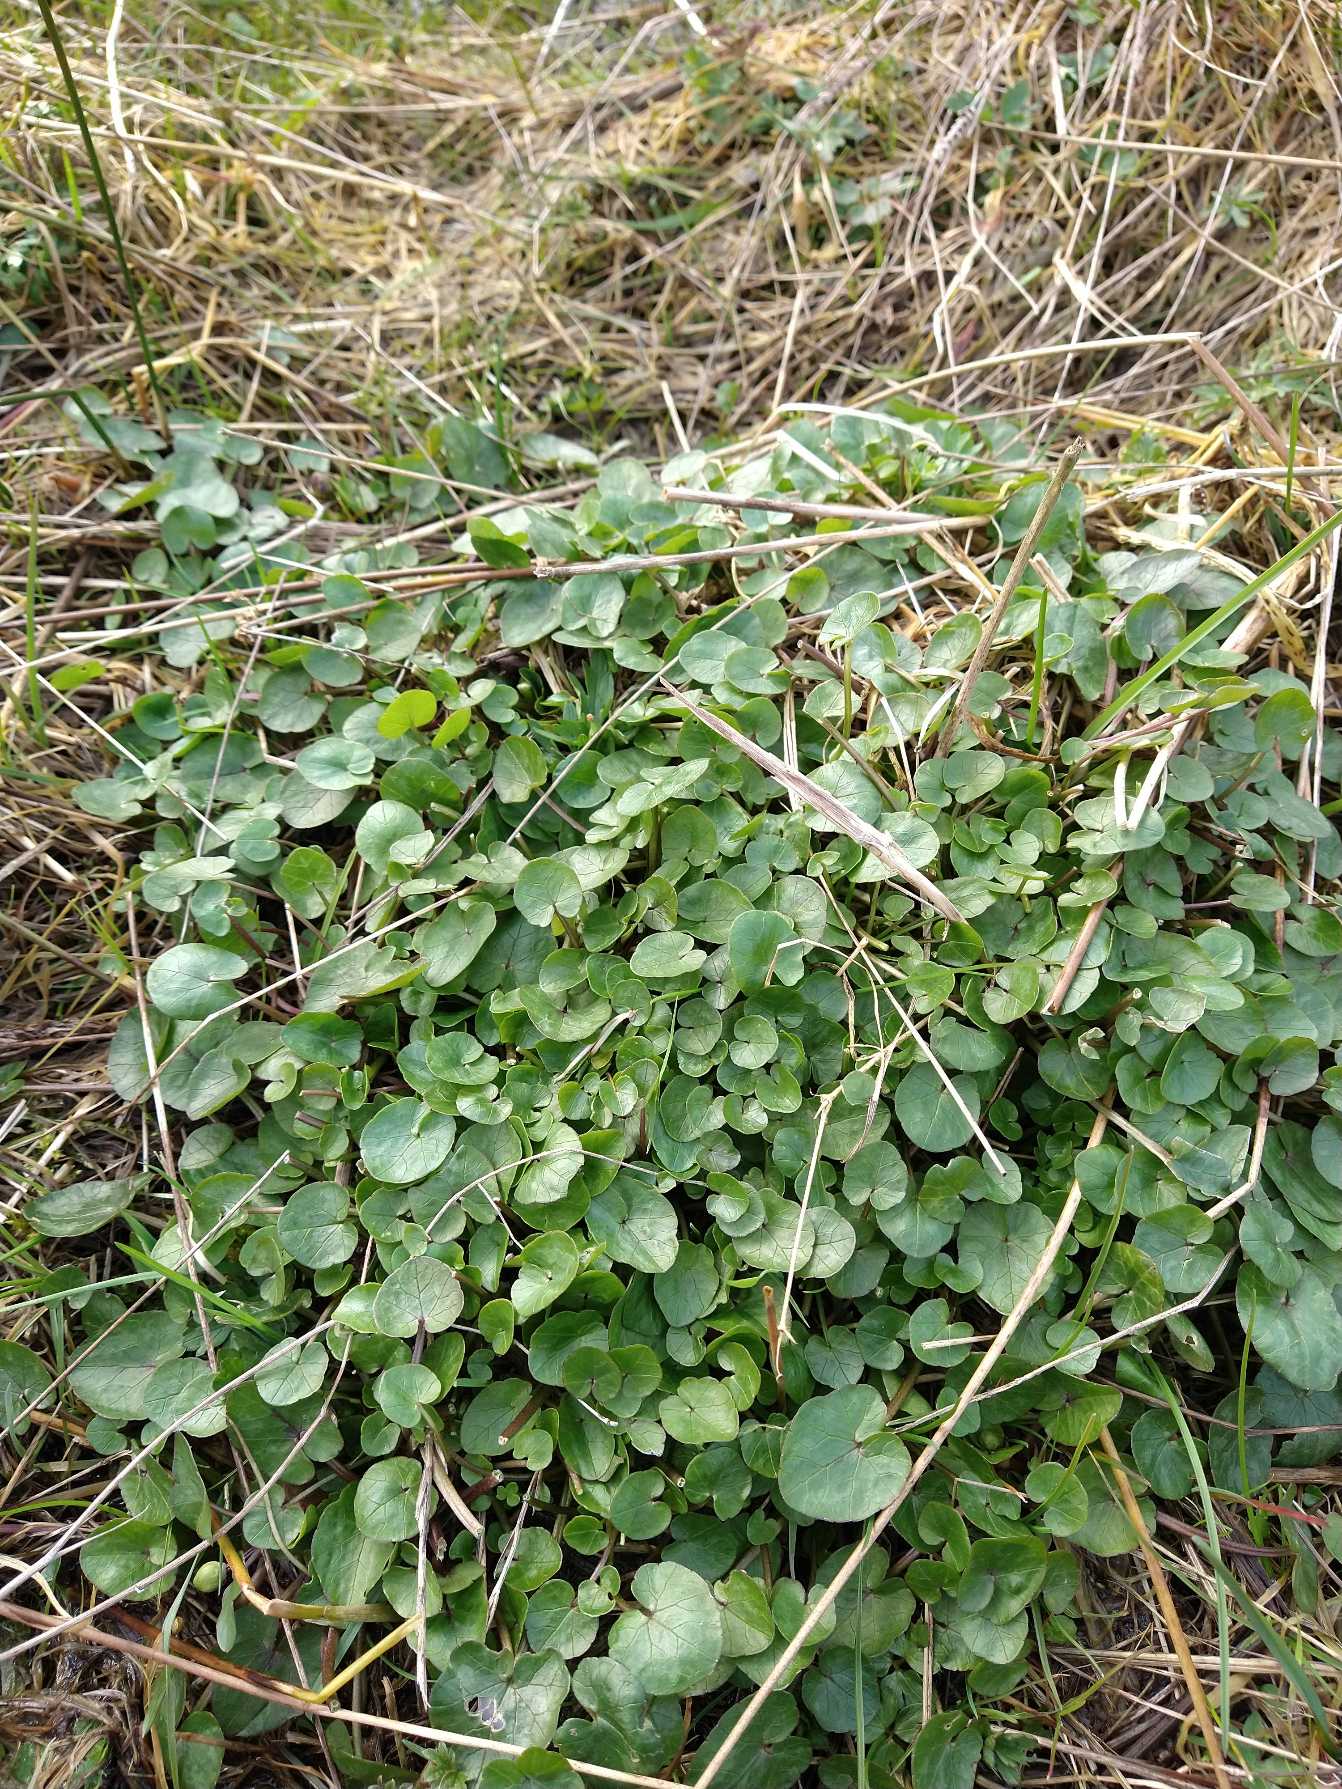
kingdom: Plantae
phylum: Tracheophyta
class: Magnoliopsida
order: Ranunculales
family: Ranunculaceae
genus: Ficaria
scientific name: Ficaria verna
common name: Vorterod
